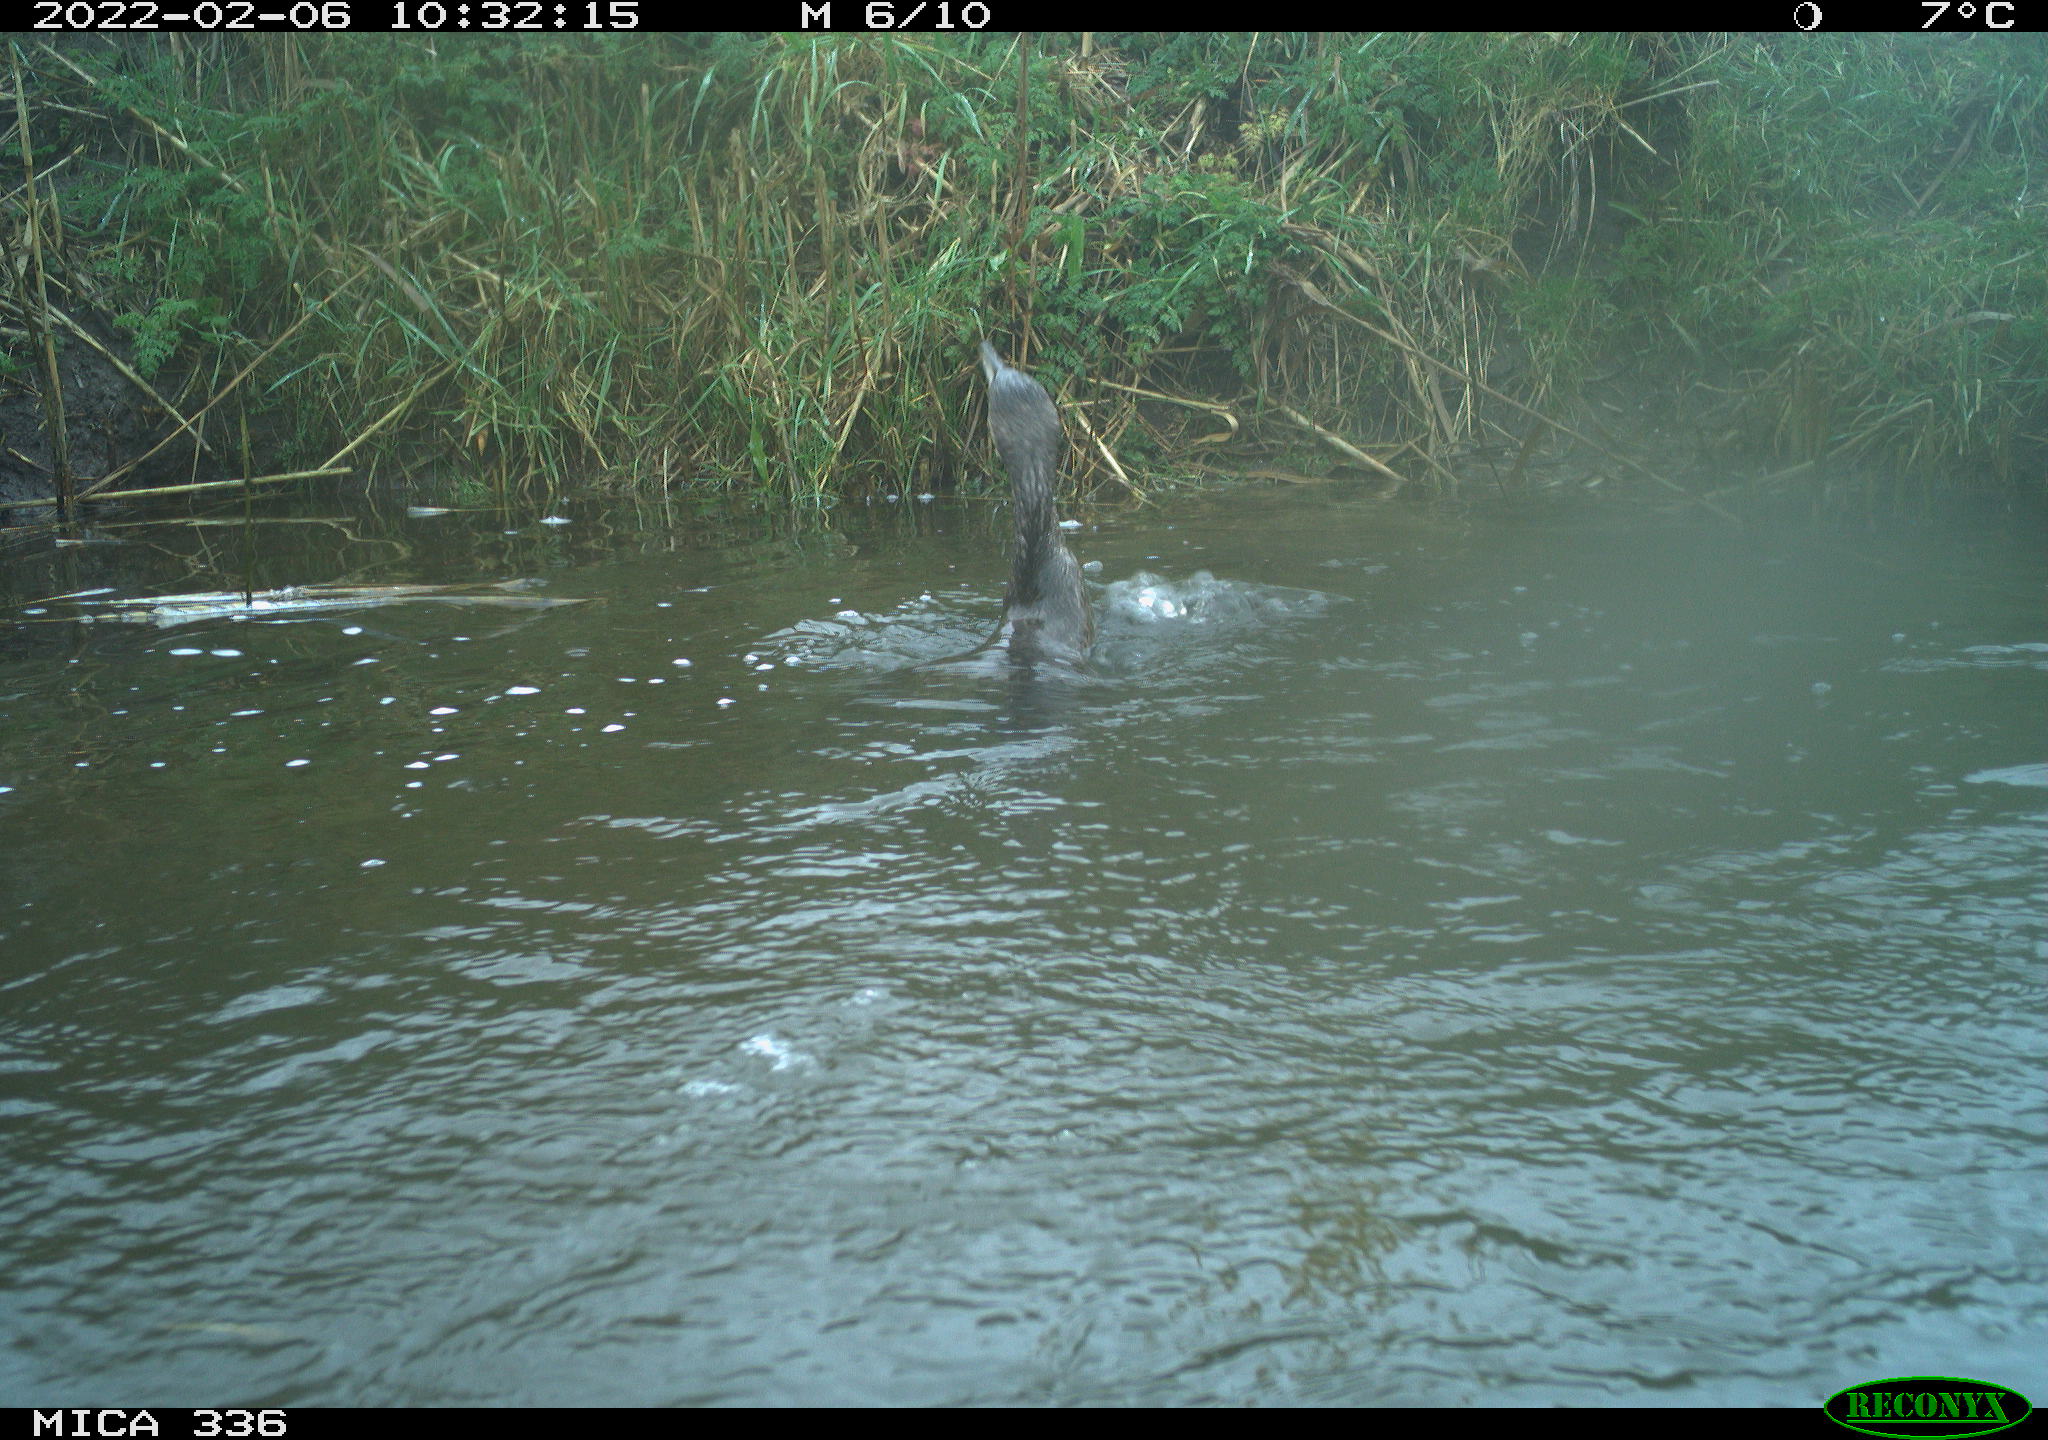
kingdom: Animalia
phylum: Chordata
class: Aves
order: Suliformes
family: Phalacrocoracidae
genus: Phalacrocorax
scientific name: Phalacrocorax carbo
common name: Great cormorant
